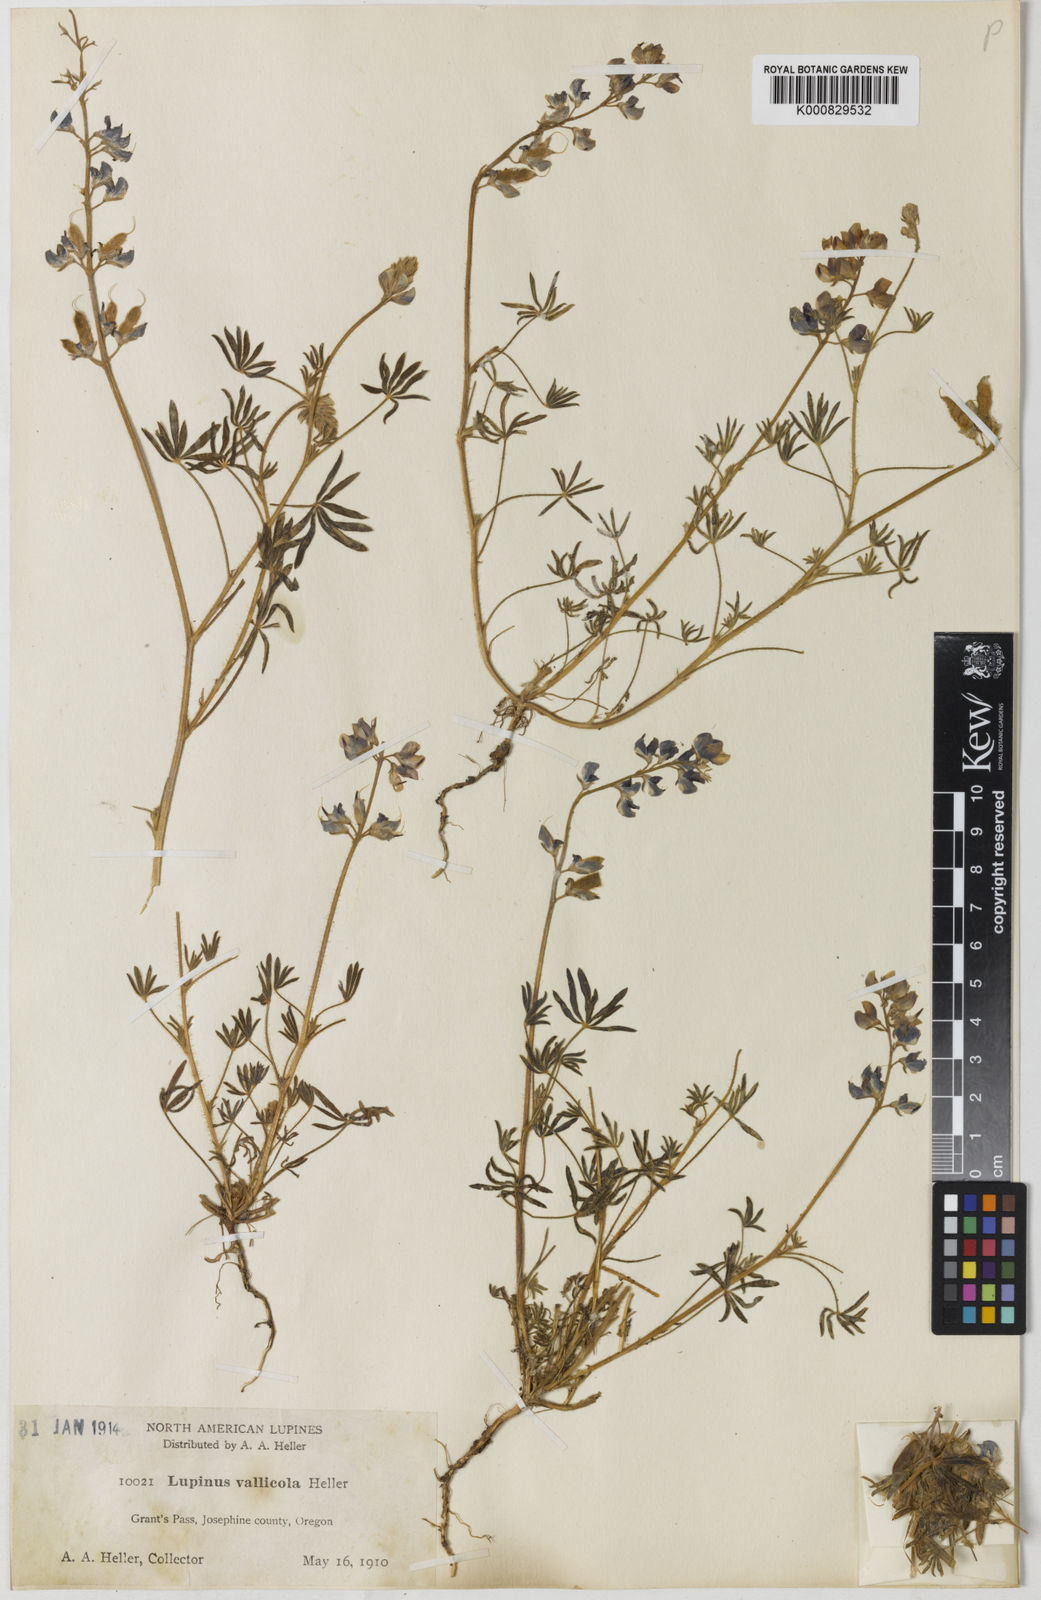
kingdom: Plantae
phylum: Tracheophyta
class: Magnoliopsida
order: Fabales
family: Fabaceae
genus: Lupinus
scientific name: Lupinus vallicola
